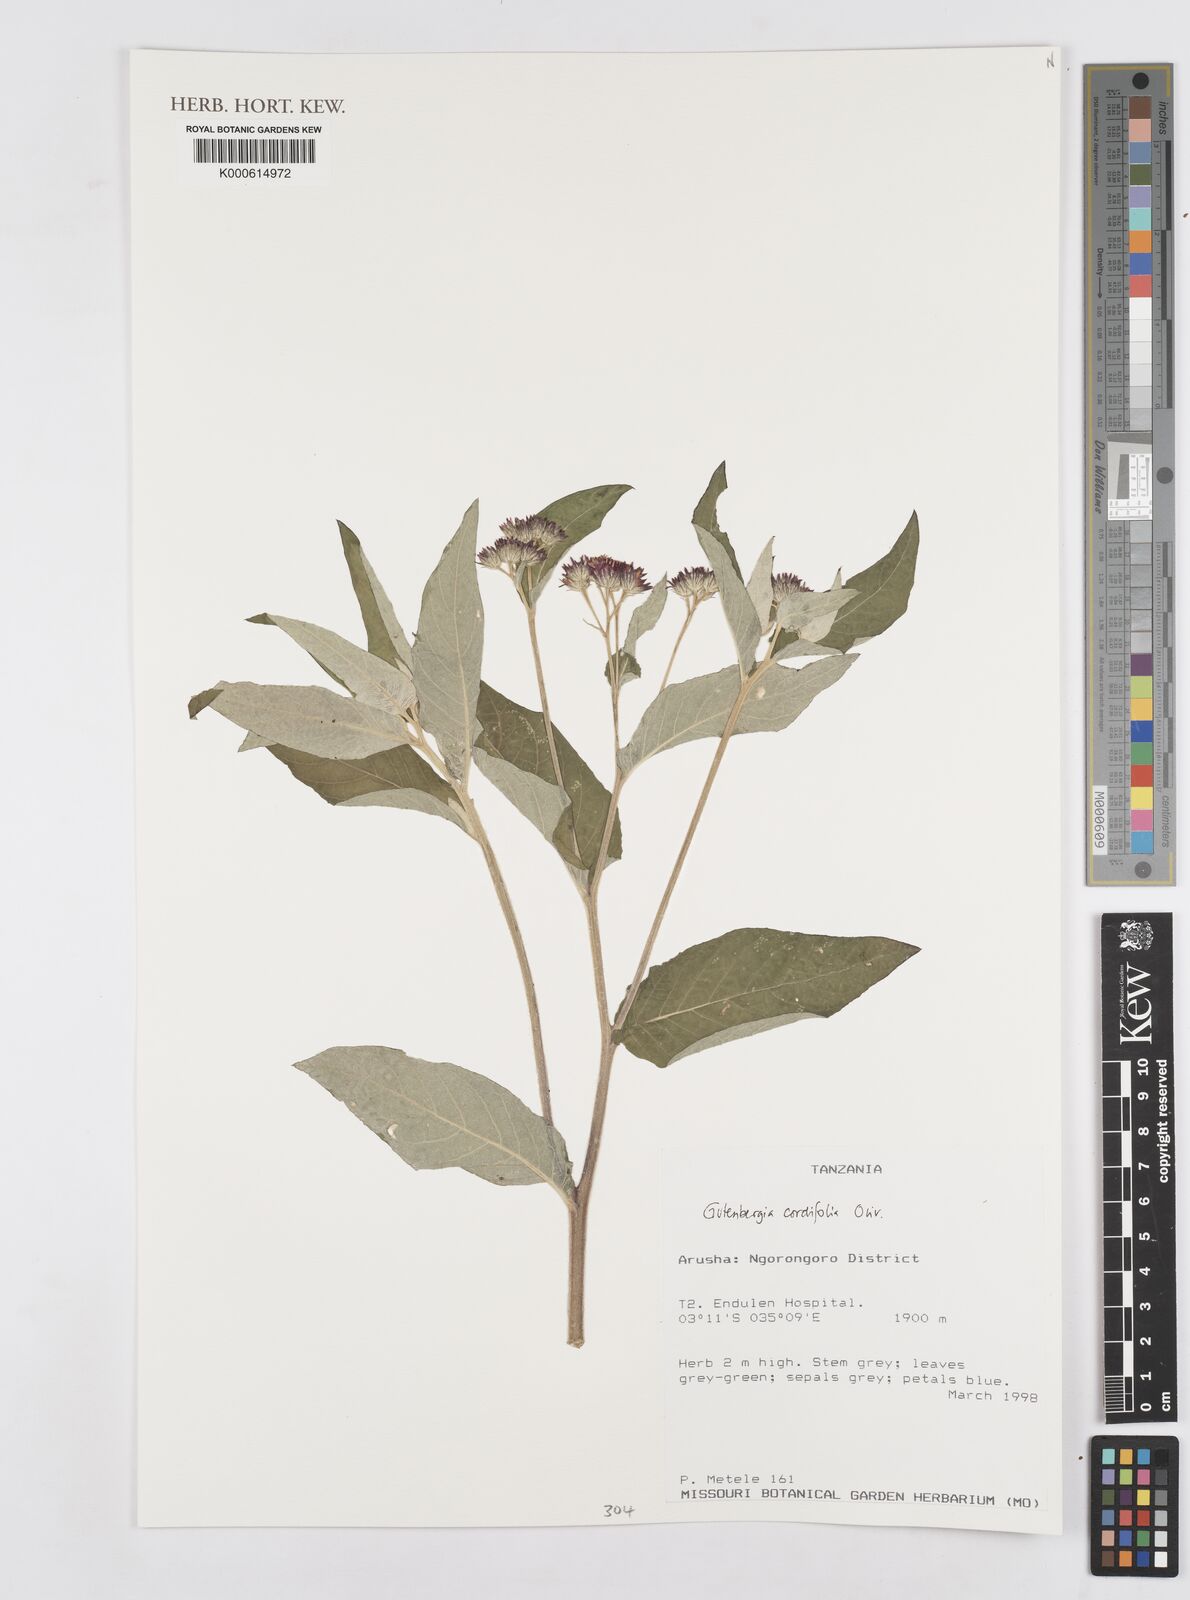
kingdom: Plantae
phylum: Tracheophyta
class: Magnoliopsida
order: Asterales
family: Asteraceae
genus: Gutenbergia
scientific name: Gutenbergia cordifolia
